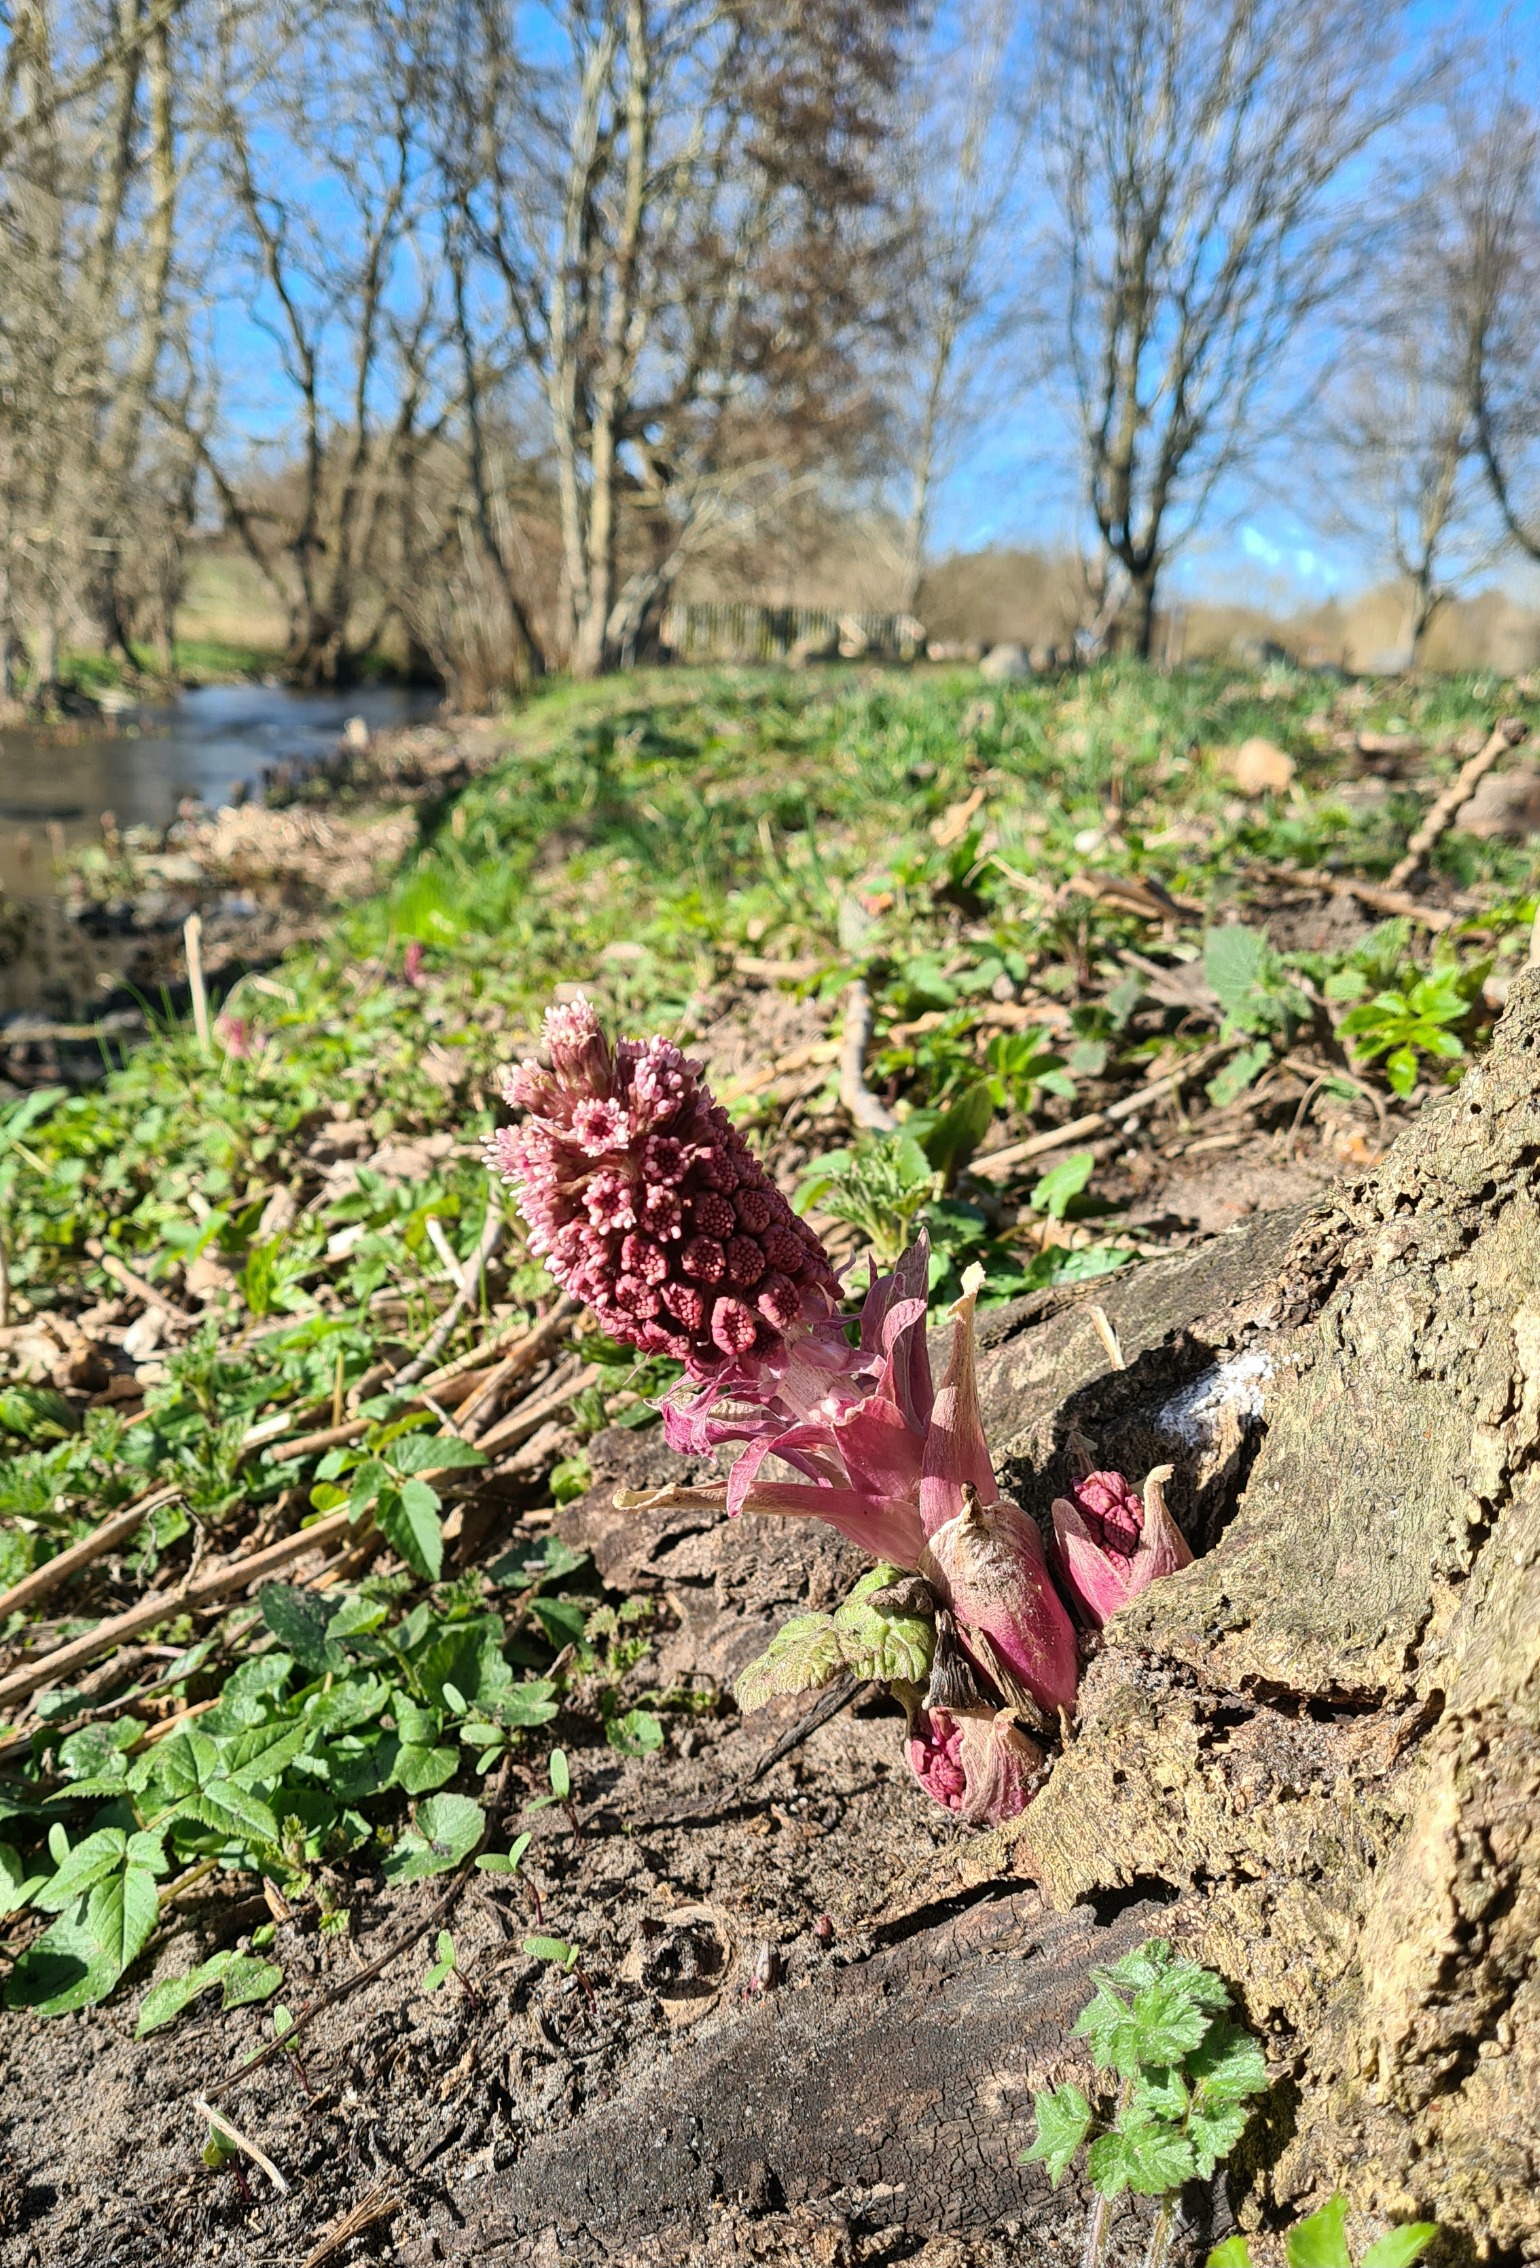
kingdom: Plantae
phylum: Tracheophyta
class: Magnoliopsida
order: Asterales
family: Asteraceae
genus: Petasites
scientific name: Petasites hybridus
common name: Rød hestehov
